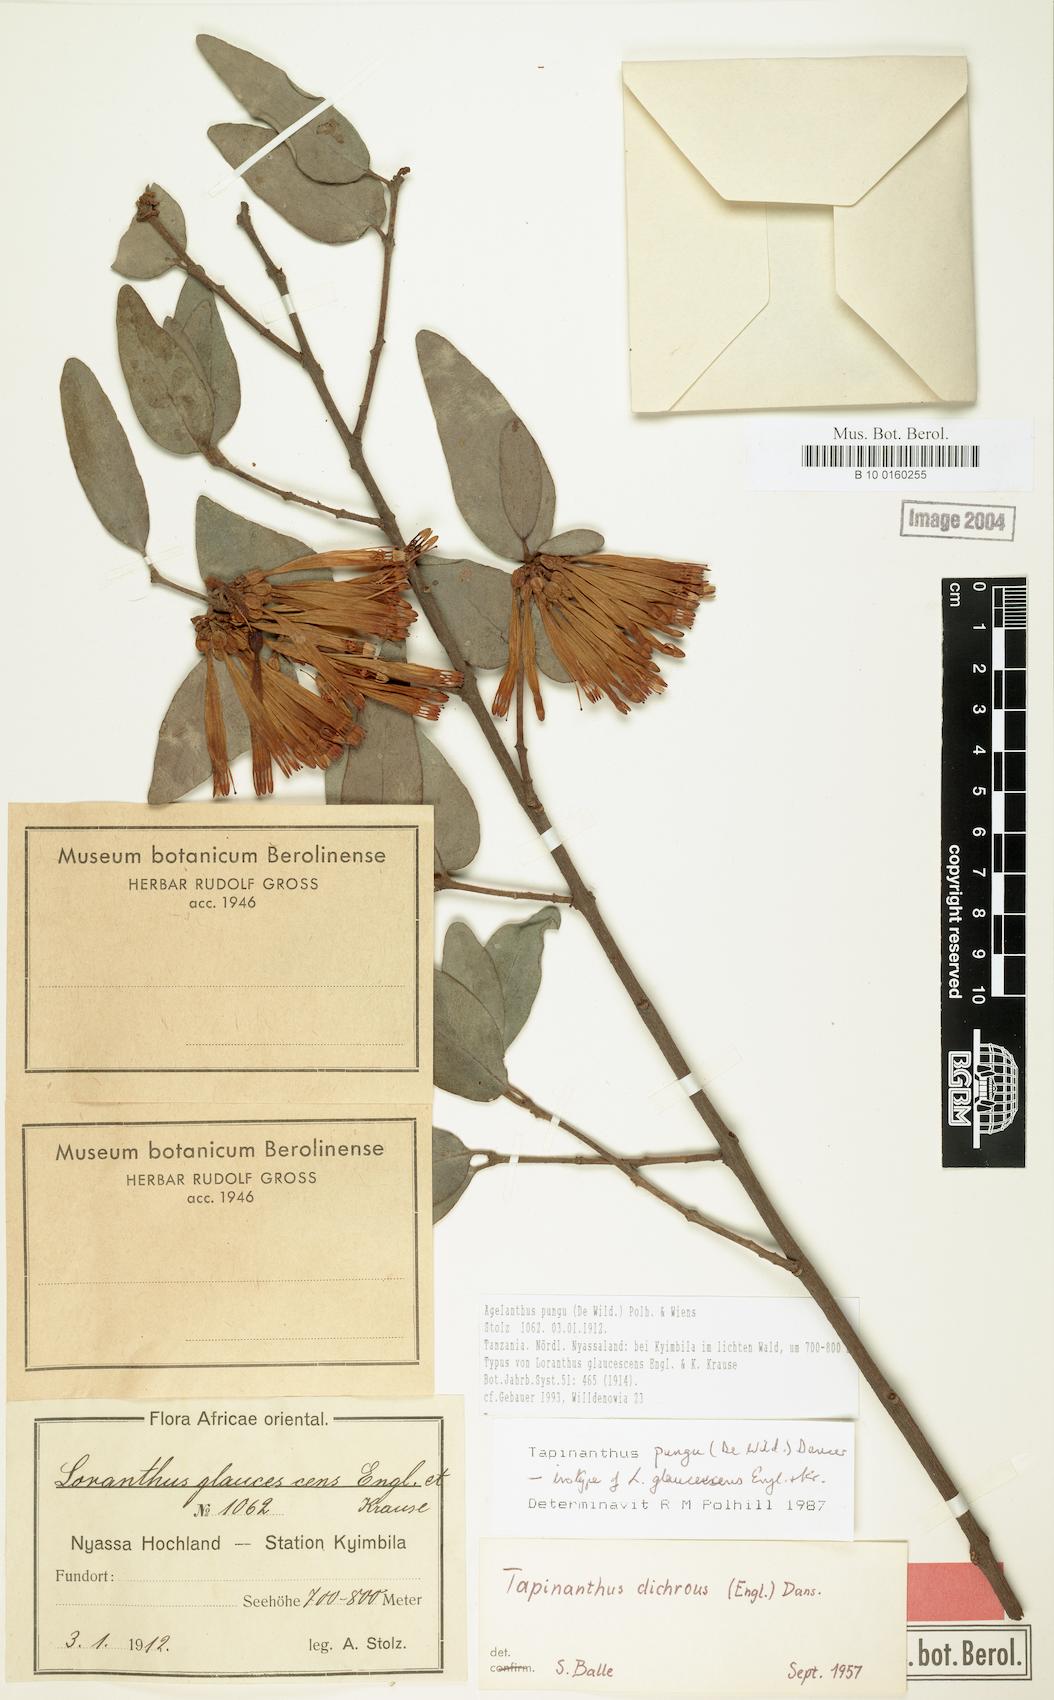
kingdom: Plantae
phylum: Tracheophyta
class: Magnoliopsida
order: Santalales
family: Loranthaceae
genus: Agelanthus
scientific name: Agelanthus pungu
